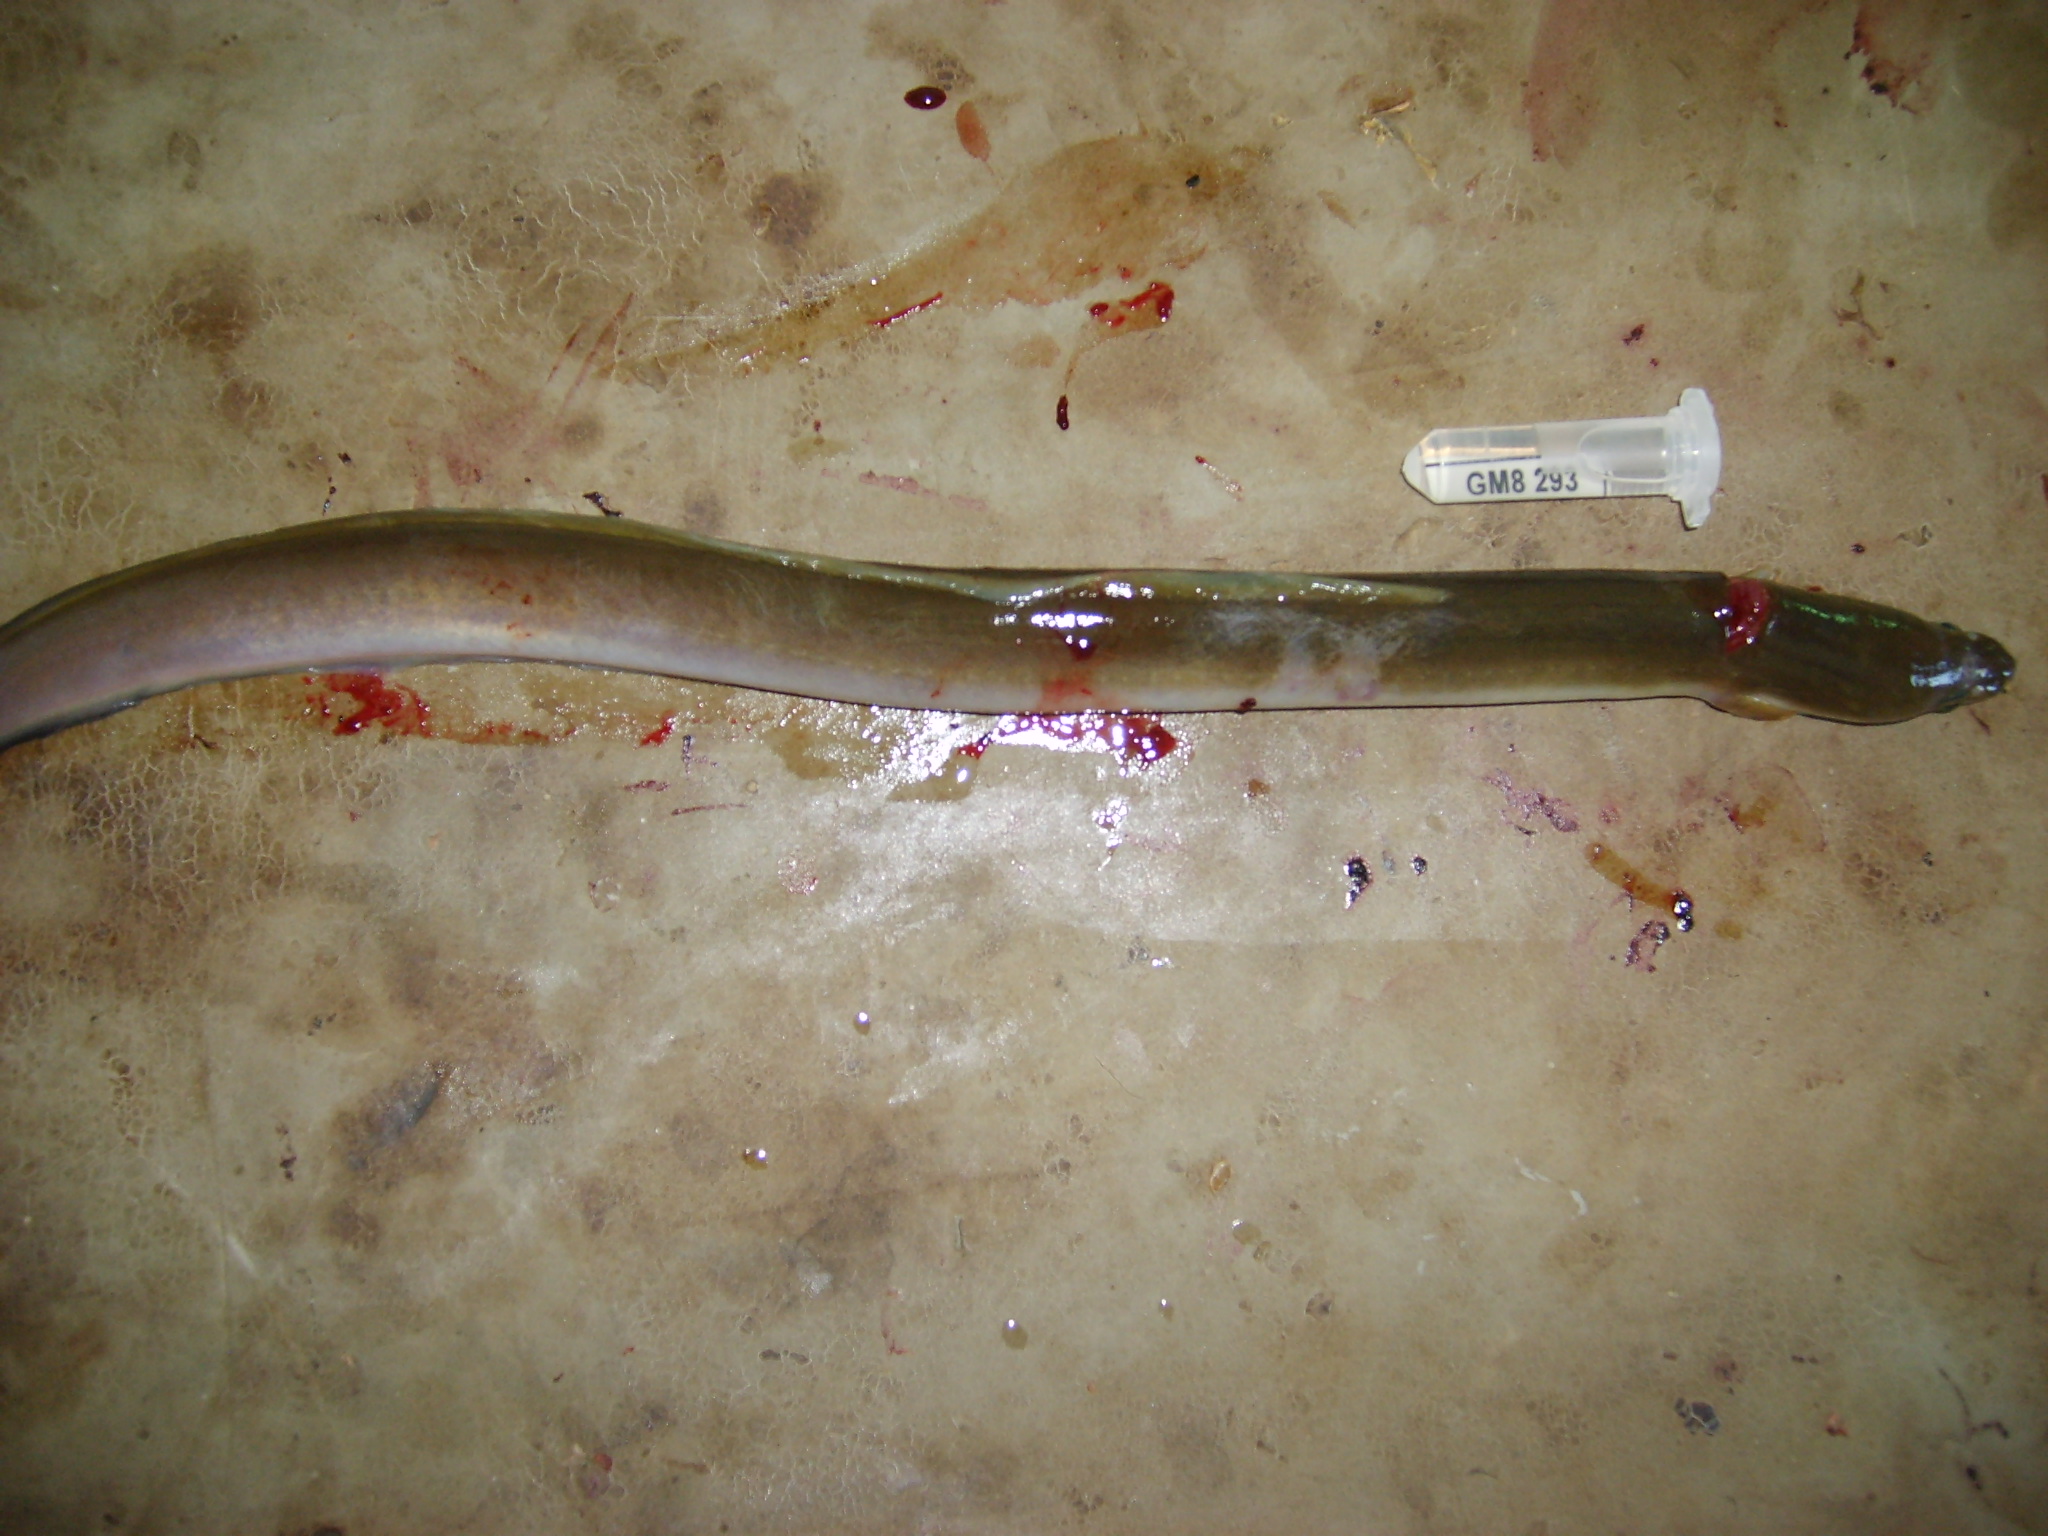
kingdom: Animalia
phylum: Chordata
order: Anguilliformes
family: Anguillidae
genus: Anguilla
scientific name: Anguilla mossambica
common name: African longfin eel
